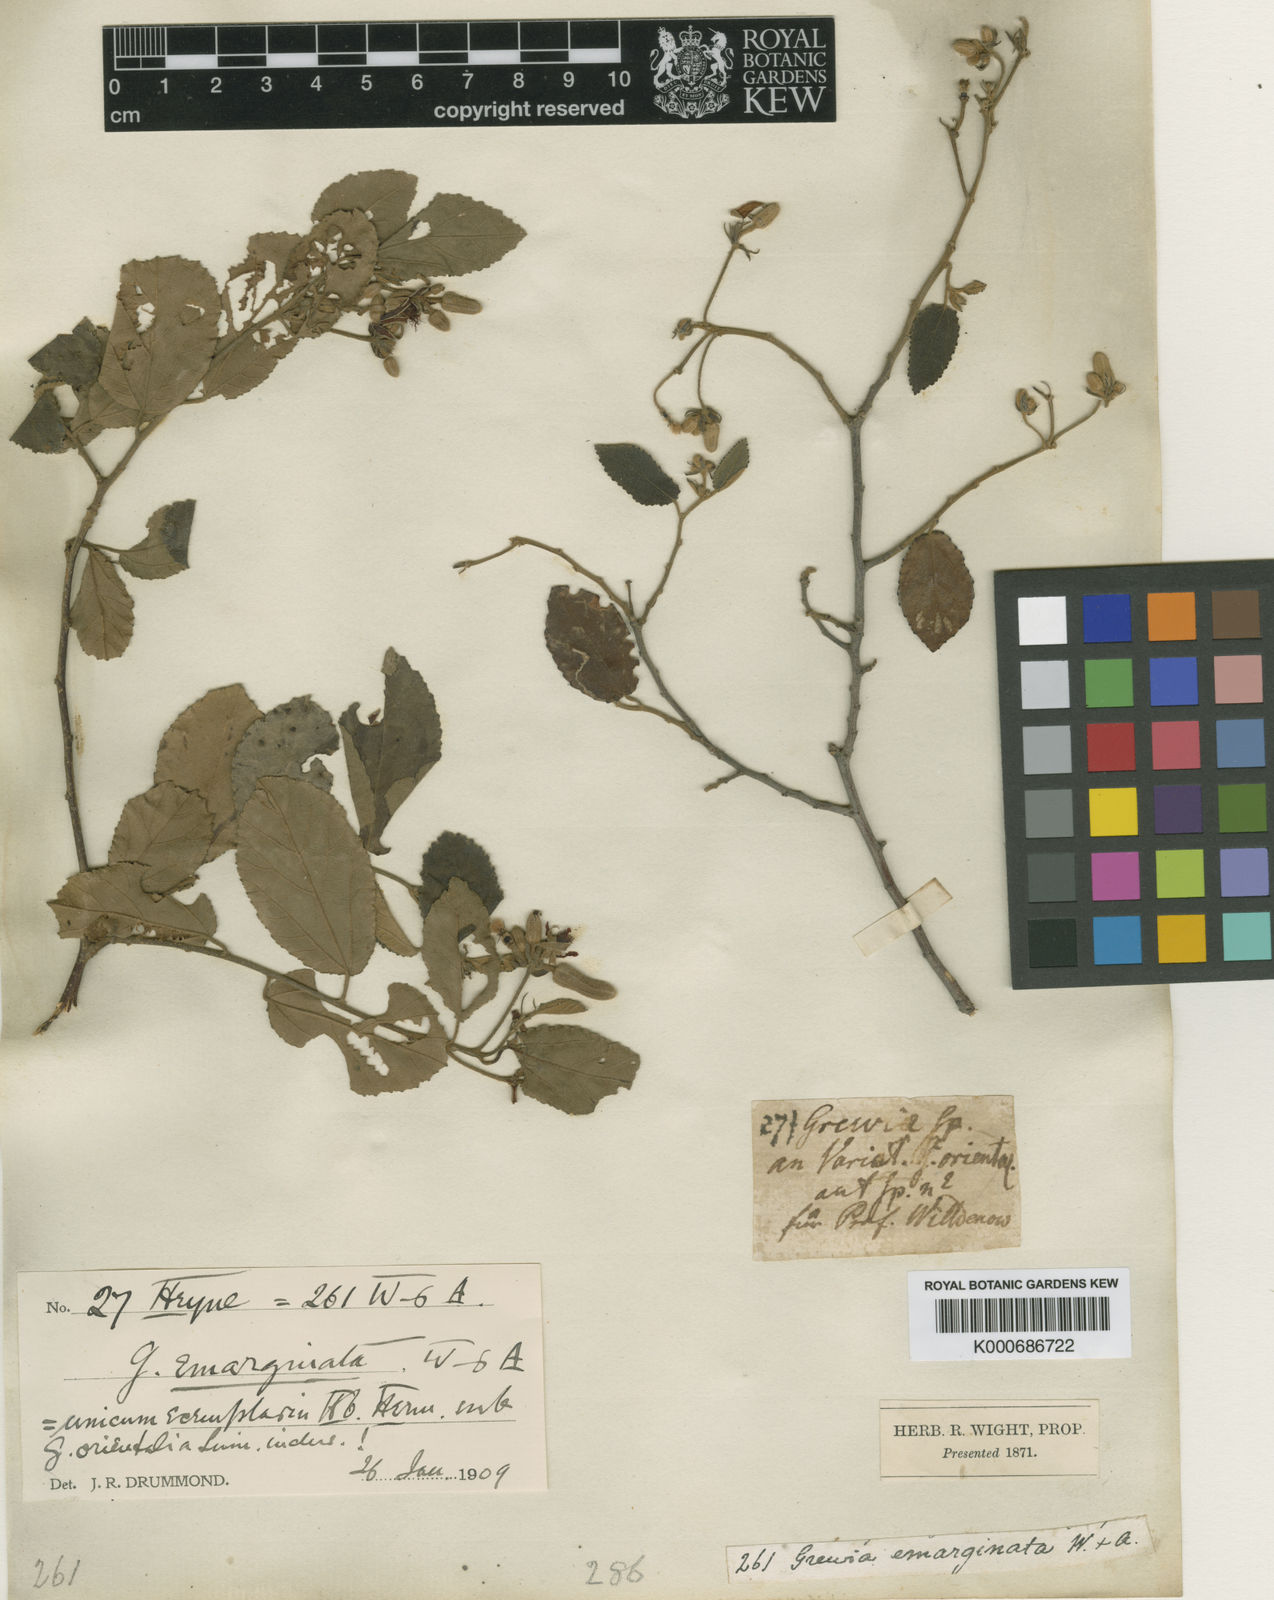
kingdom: Plantae
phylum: Tracheophyta
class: Magnoliopsida
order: Malvales
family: Malvaceae
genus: Grewia
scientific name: Grewia oppositifolia
